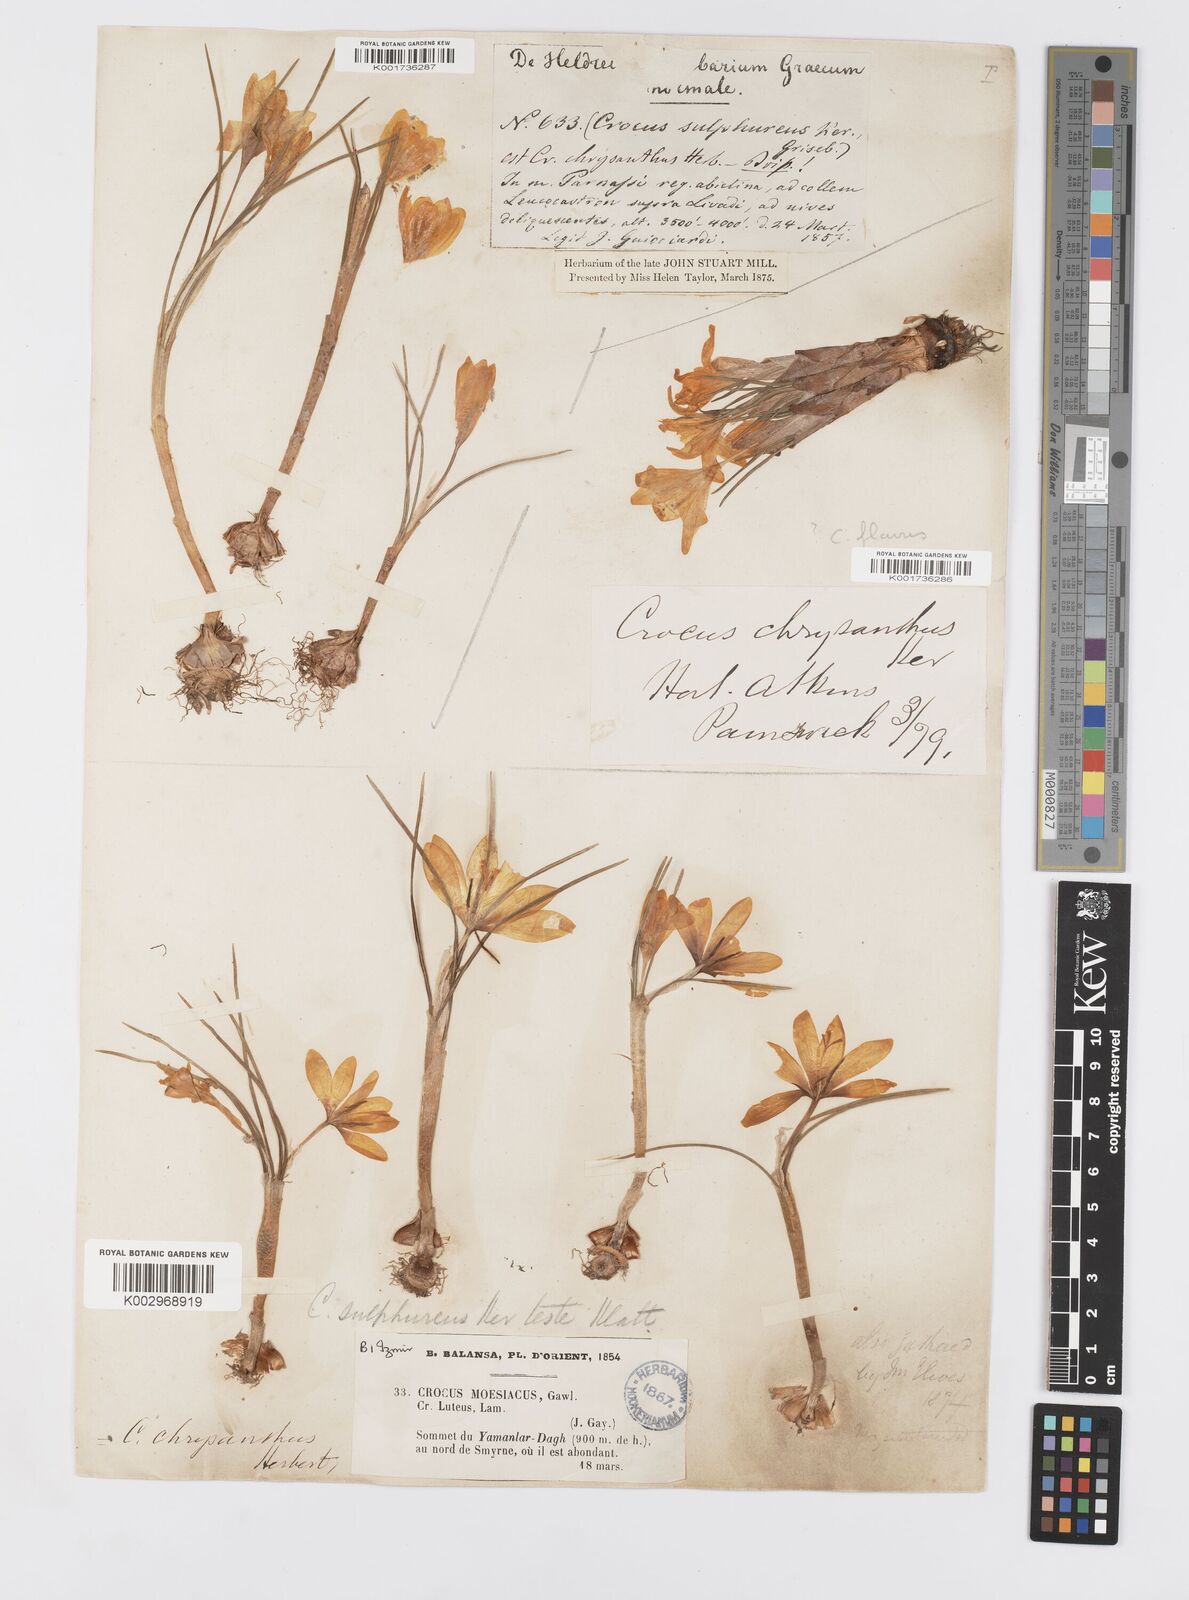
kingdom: Plantae
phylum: Tracheophyta
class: Liliopsida
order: Asparagales
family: Iridaceae
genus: Crocus
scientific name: Crocus
